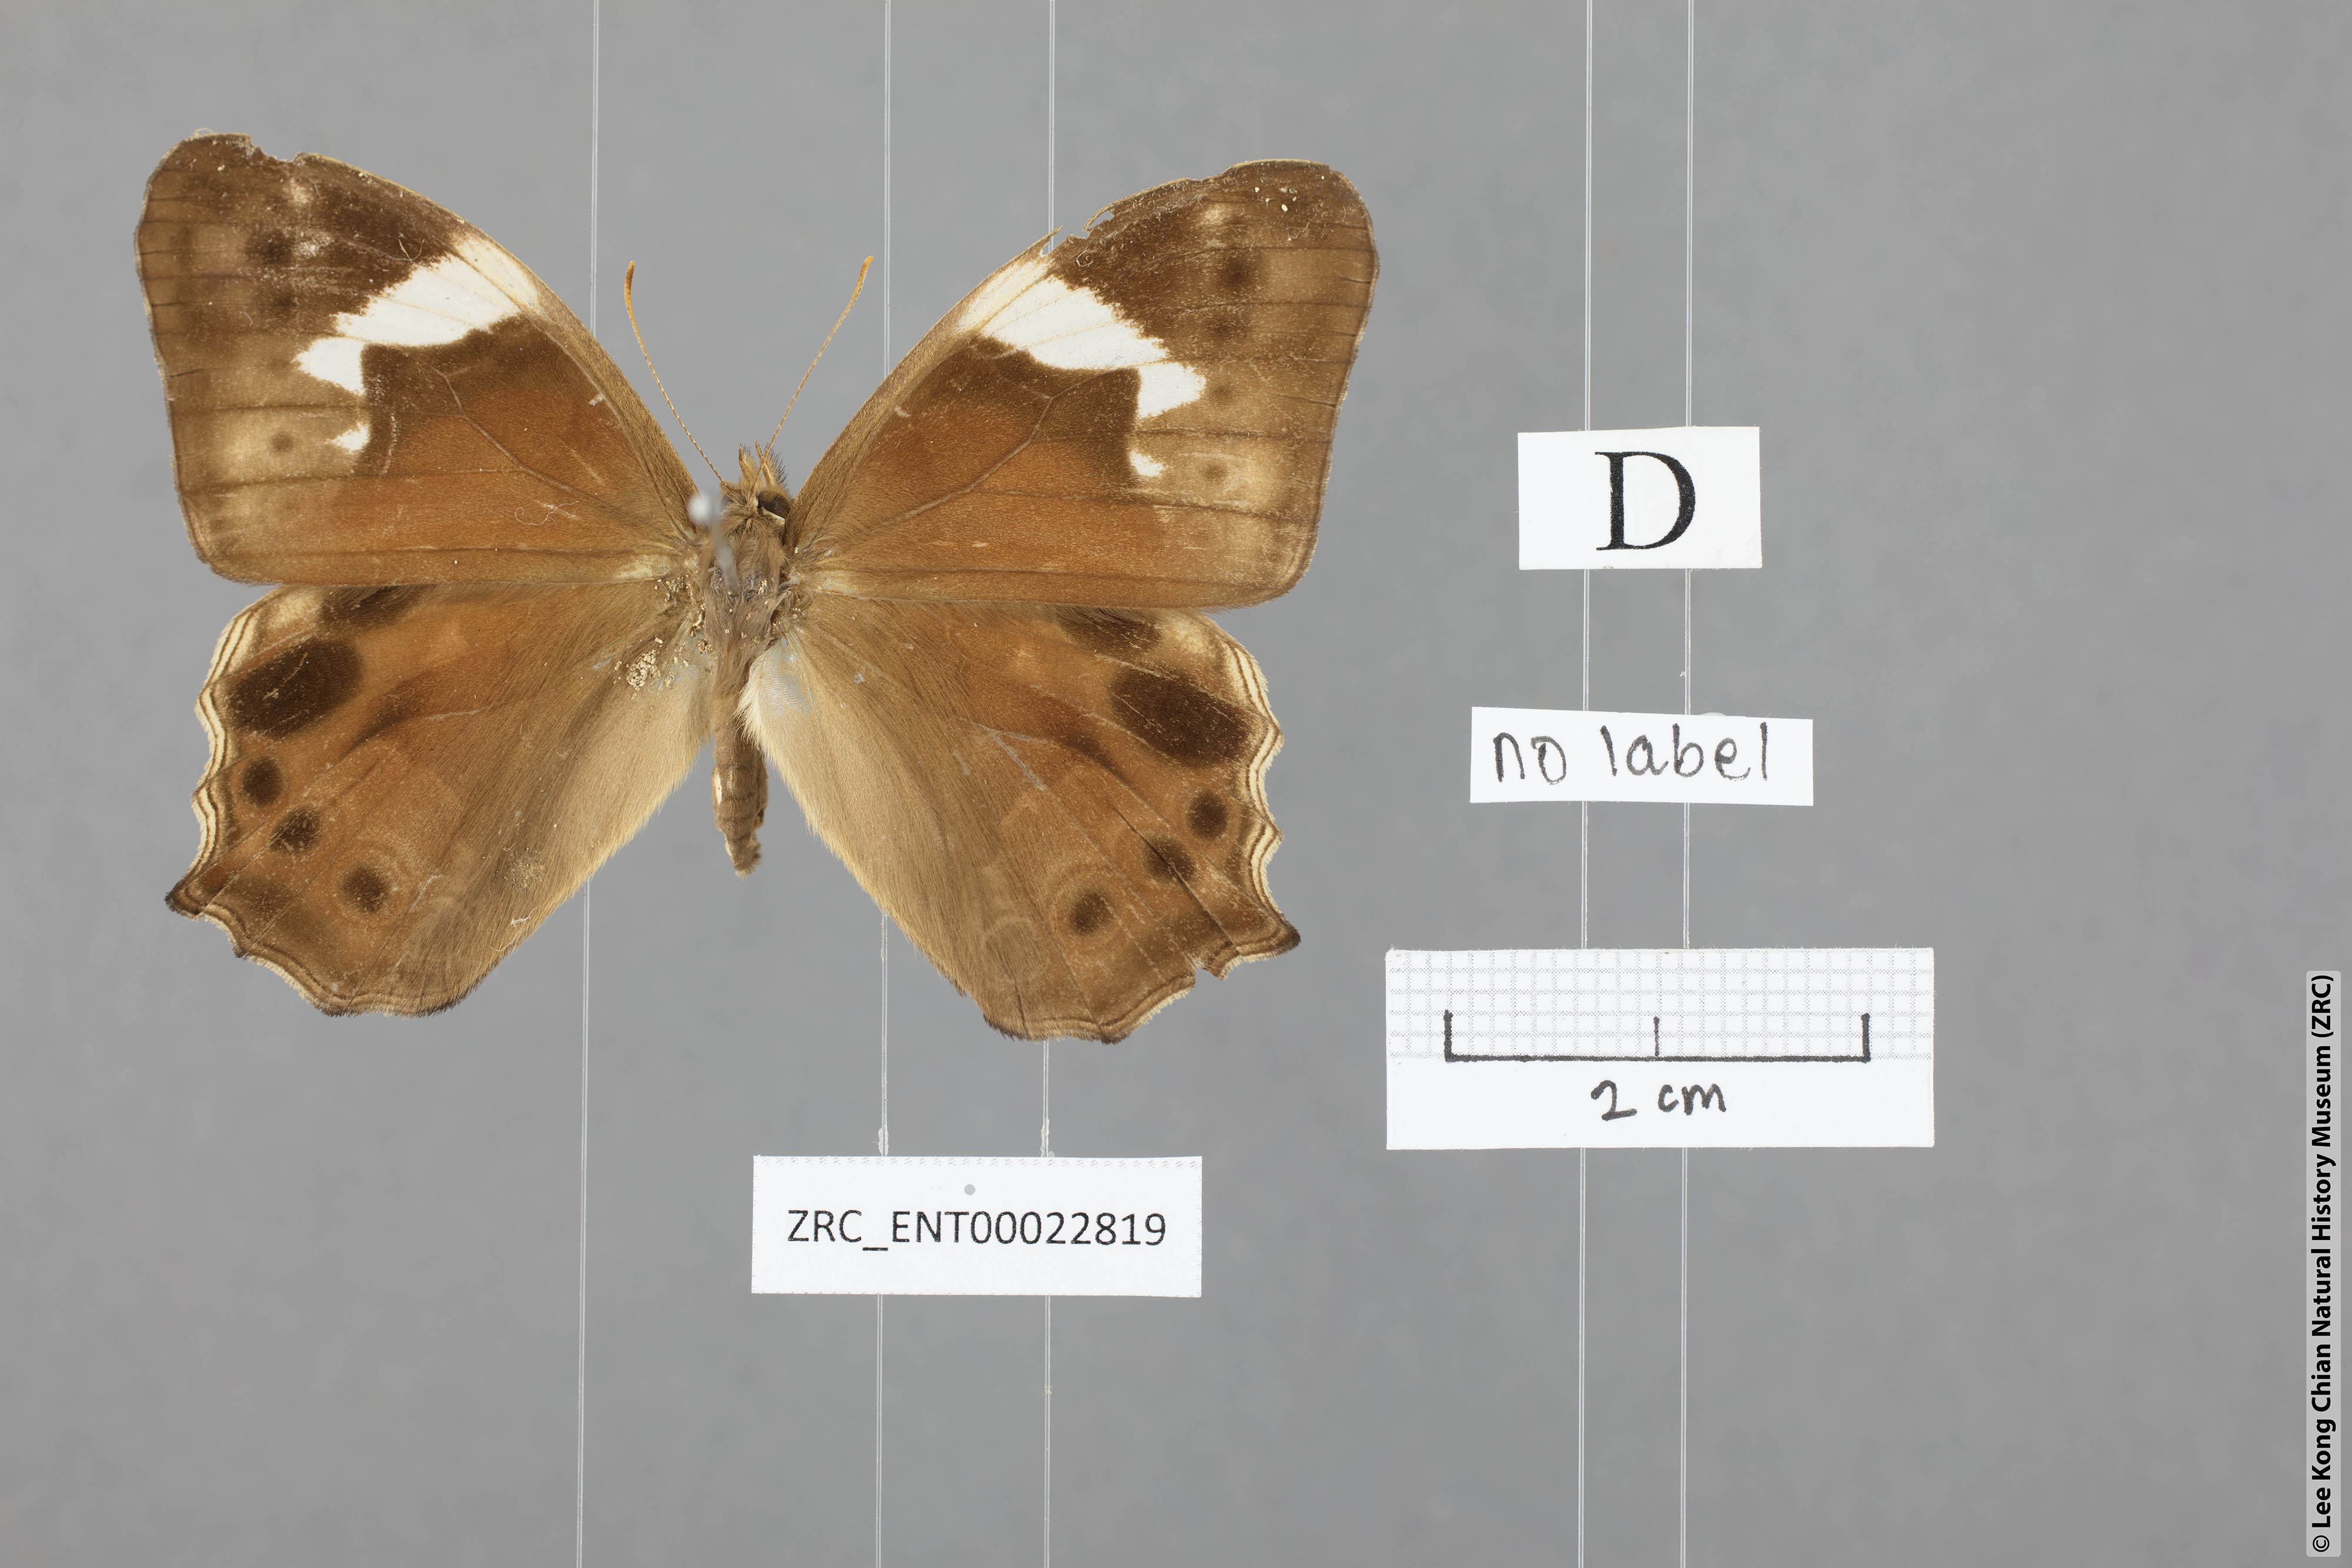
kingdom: Animalia
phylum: Arthropoda
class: Insecta
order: Lepidoptera
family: Nymphalidae
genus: Lethe
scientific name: Lethe chandica
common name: Angled red forester
